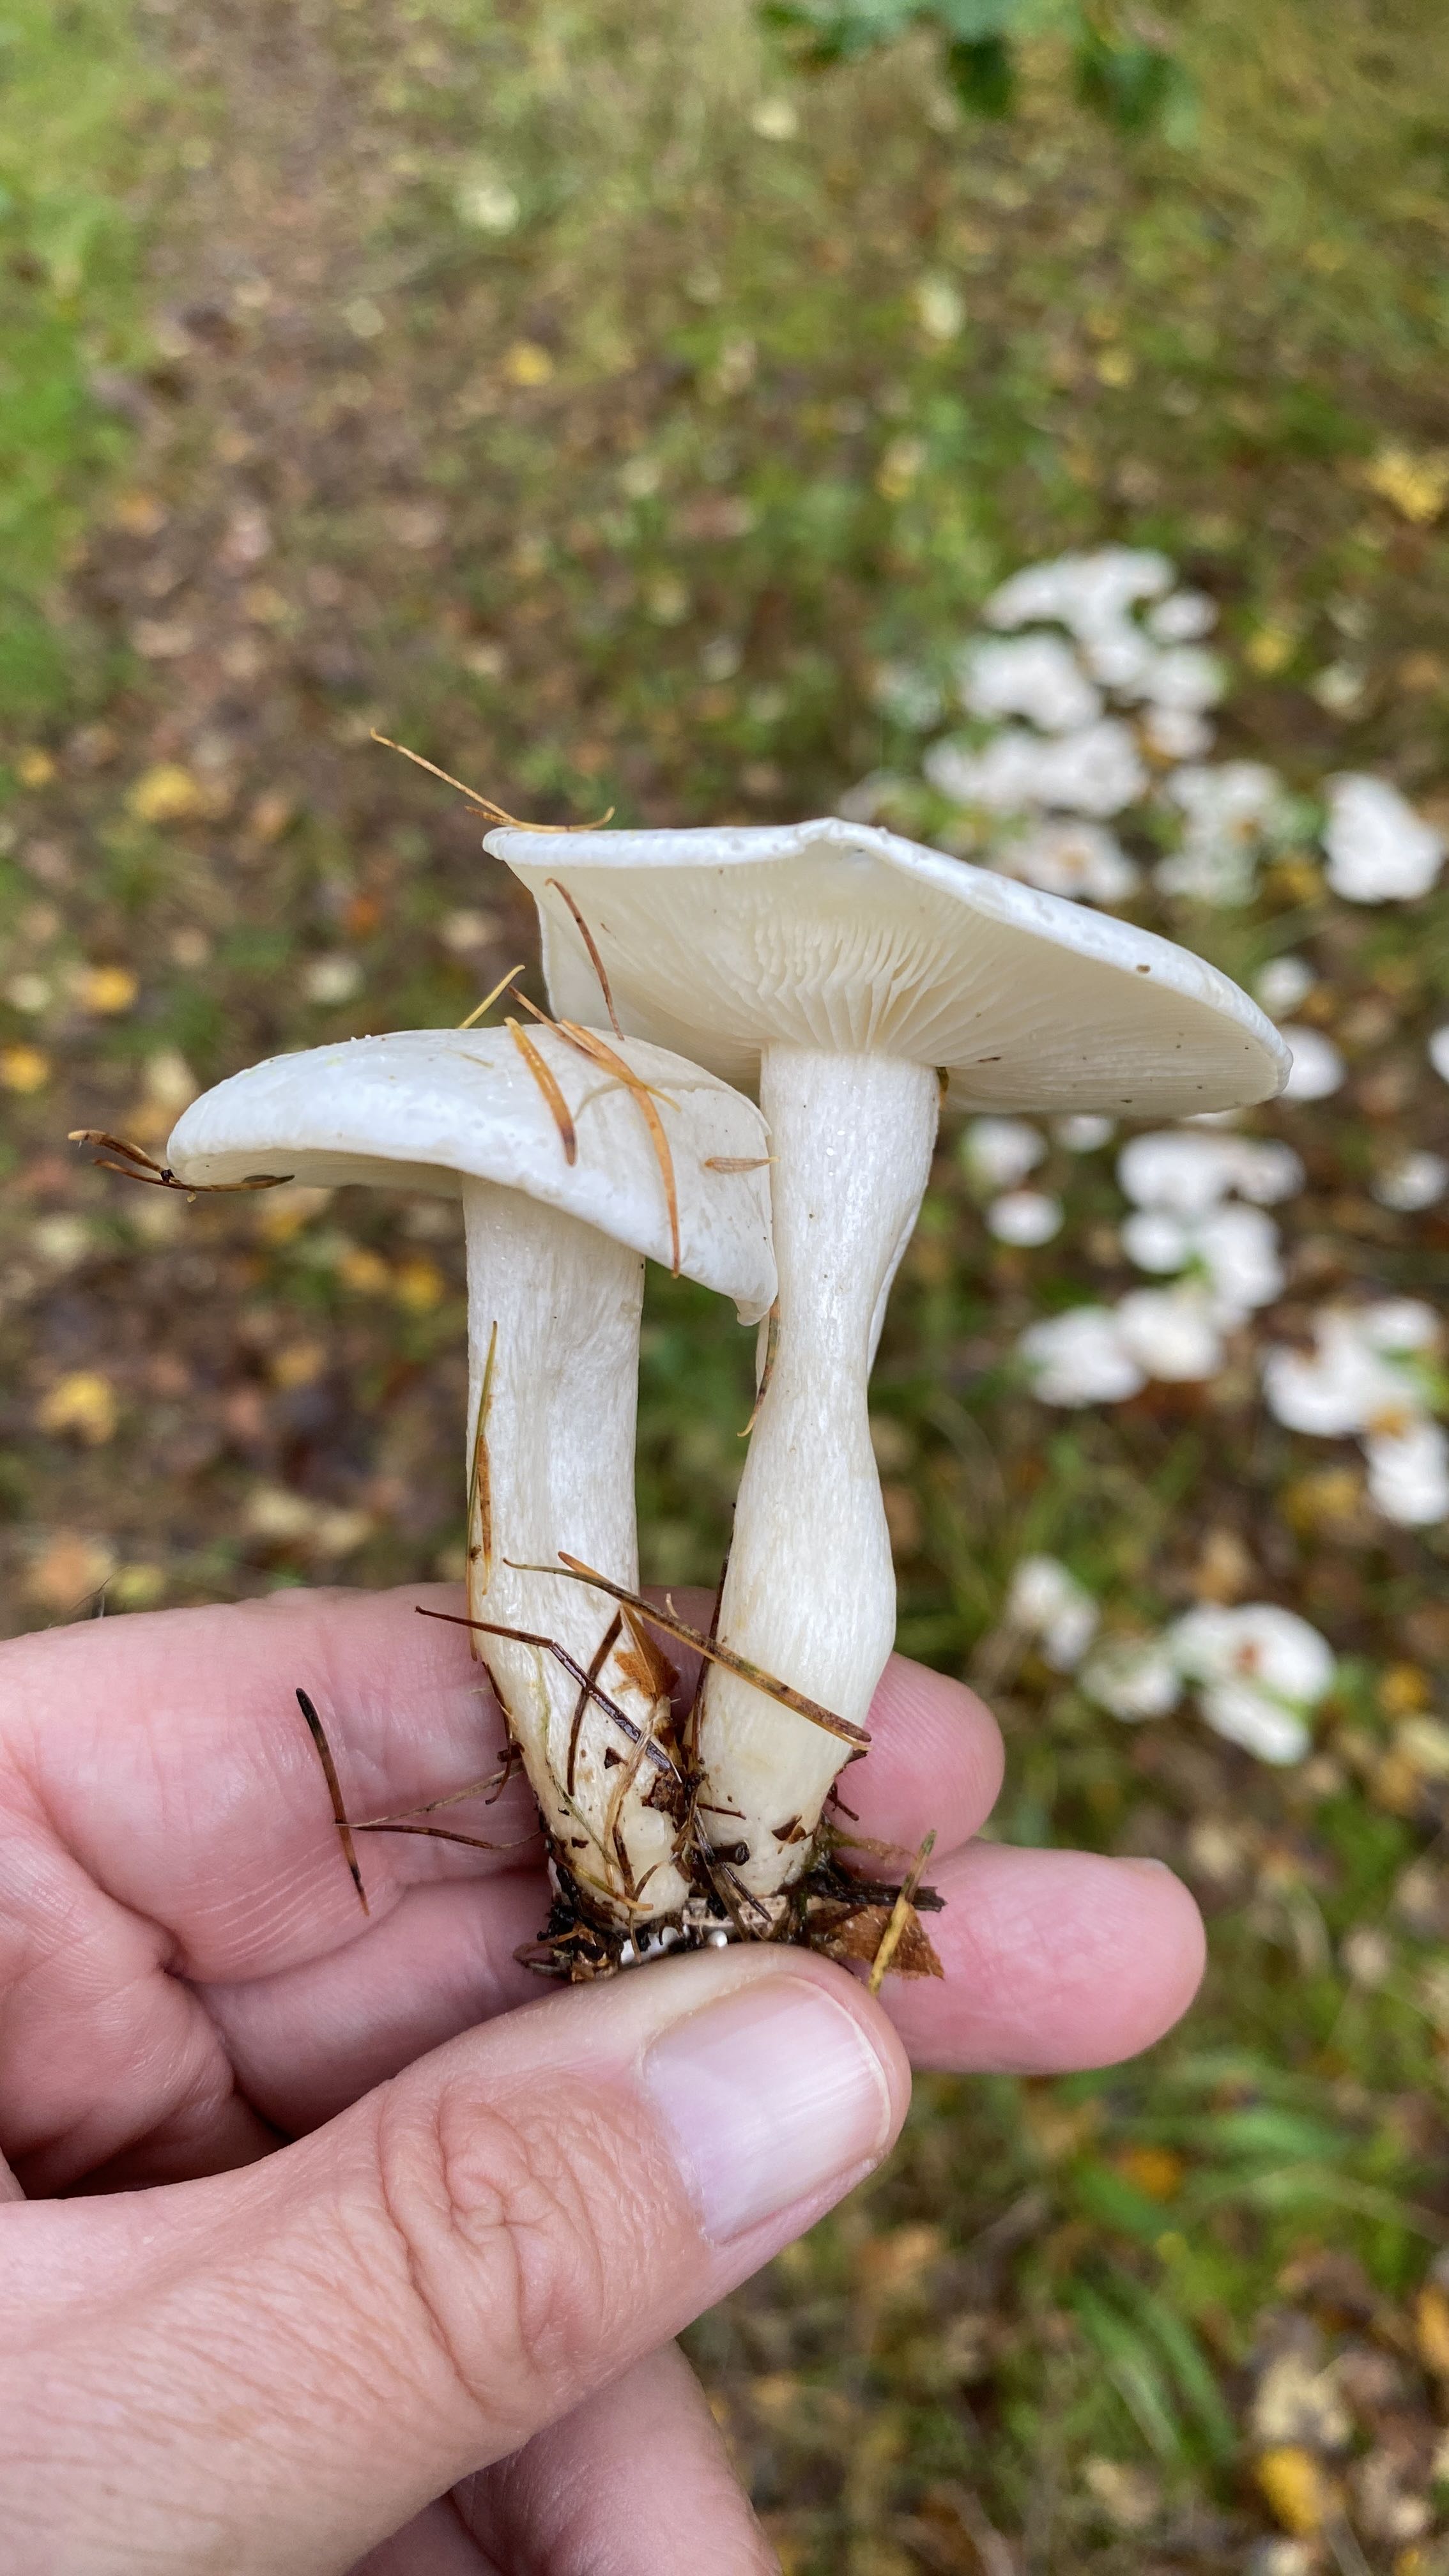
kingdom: Fungi
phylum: Basidiomycota
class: Agaricomycetes
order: Agaricales
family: Tricholomataceae
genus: Leucocybe
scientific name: Leucocybe connata
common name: knippe-tragthat
